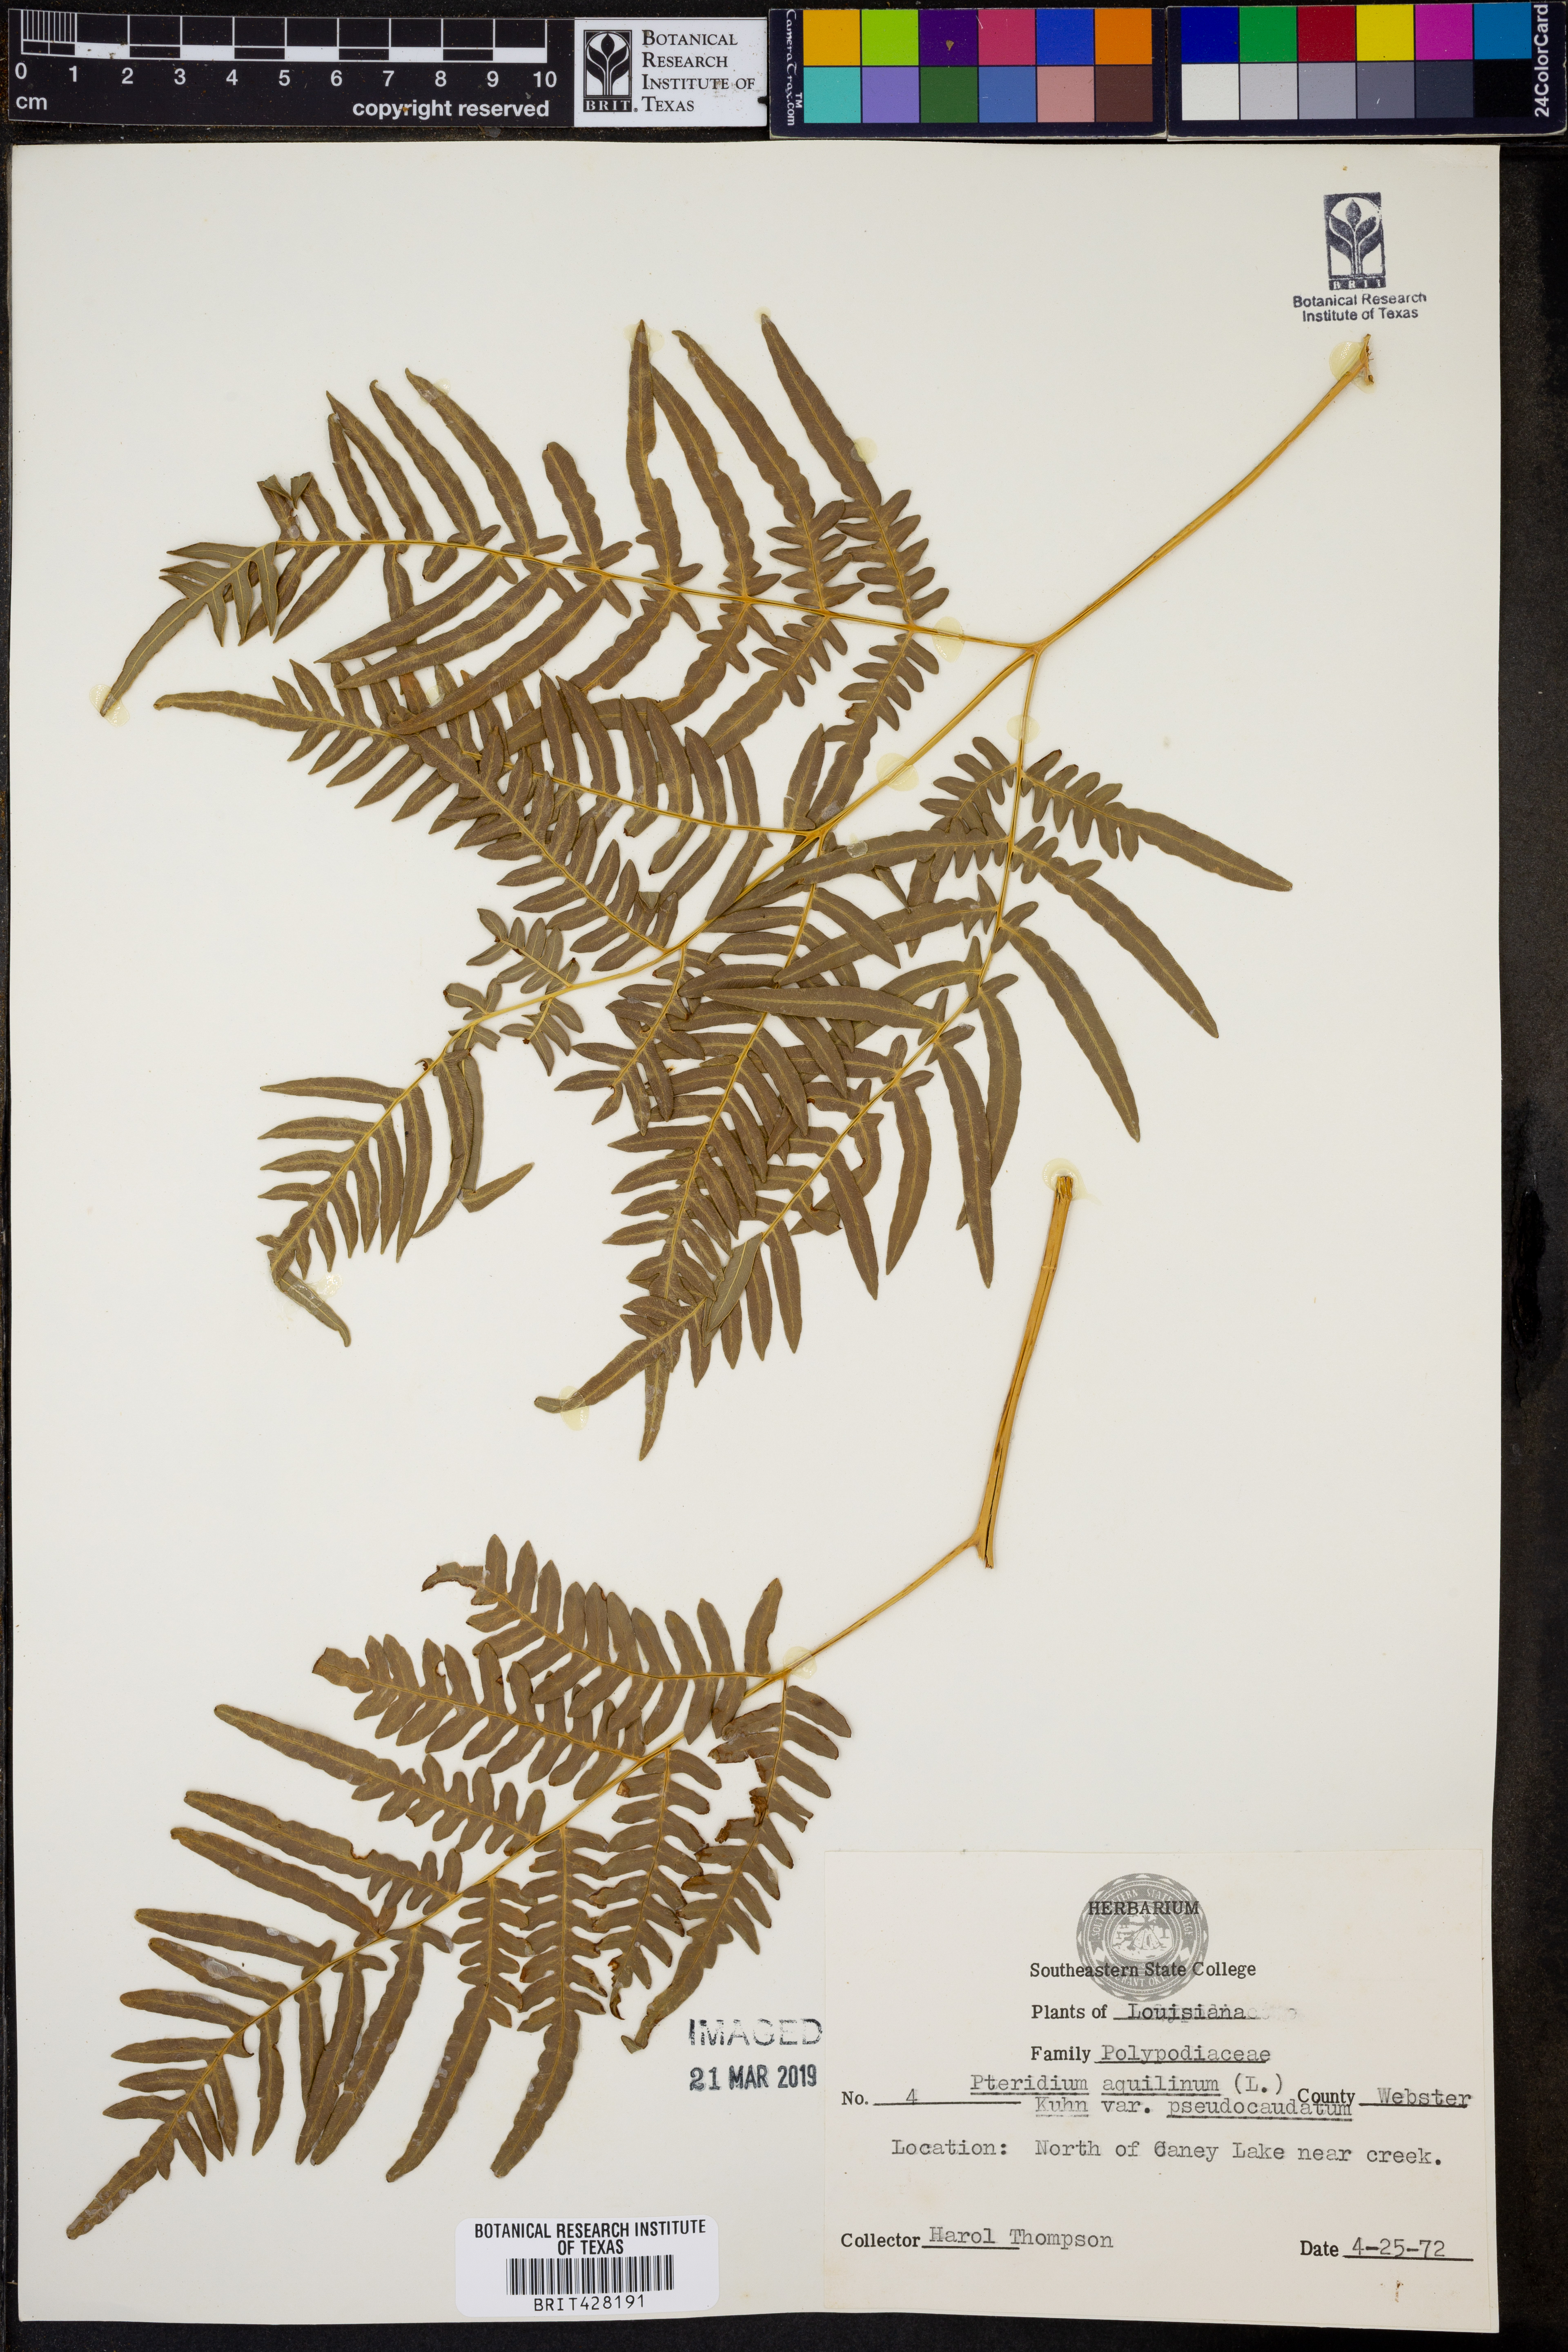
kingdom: Plantae
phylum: Tracheophyta
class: Polypodiopsida
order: Polypodiales
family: Dennstaedtiaceae
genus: Pteridium
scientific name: Pteridium aquilinum
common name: Bracken
